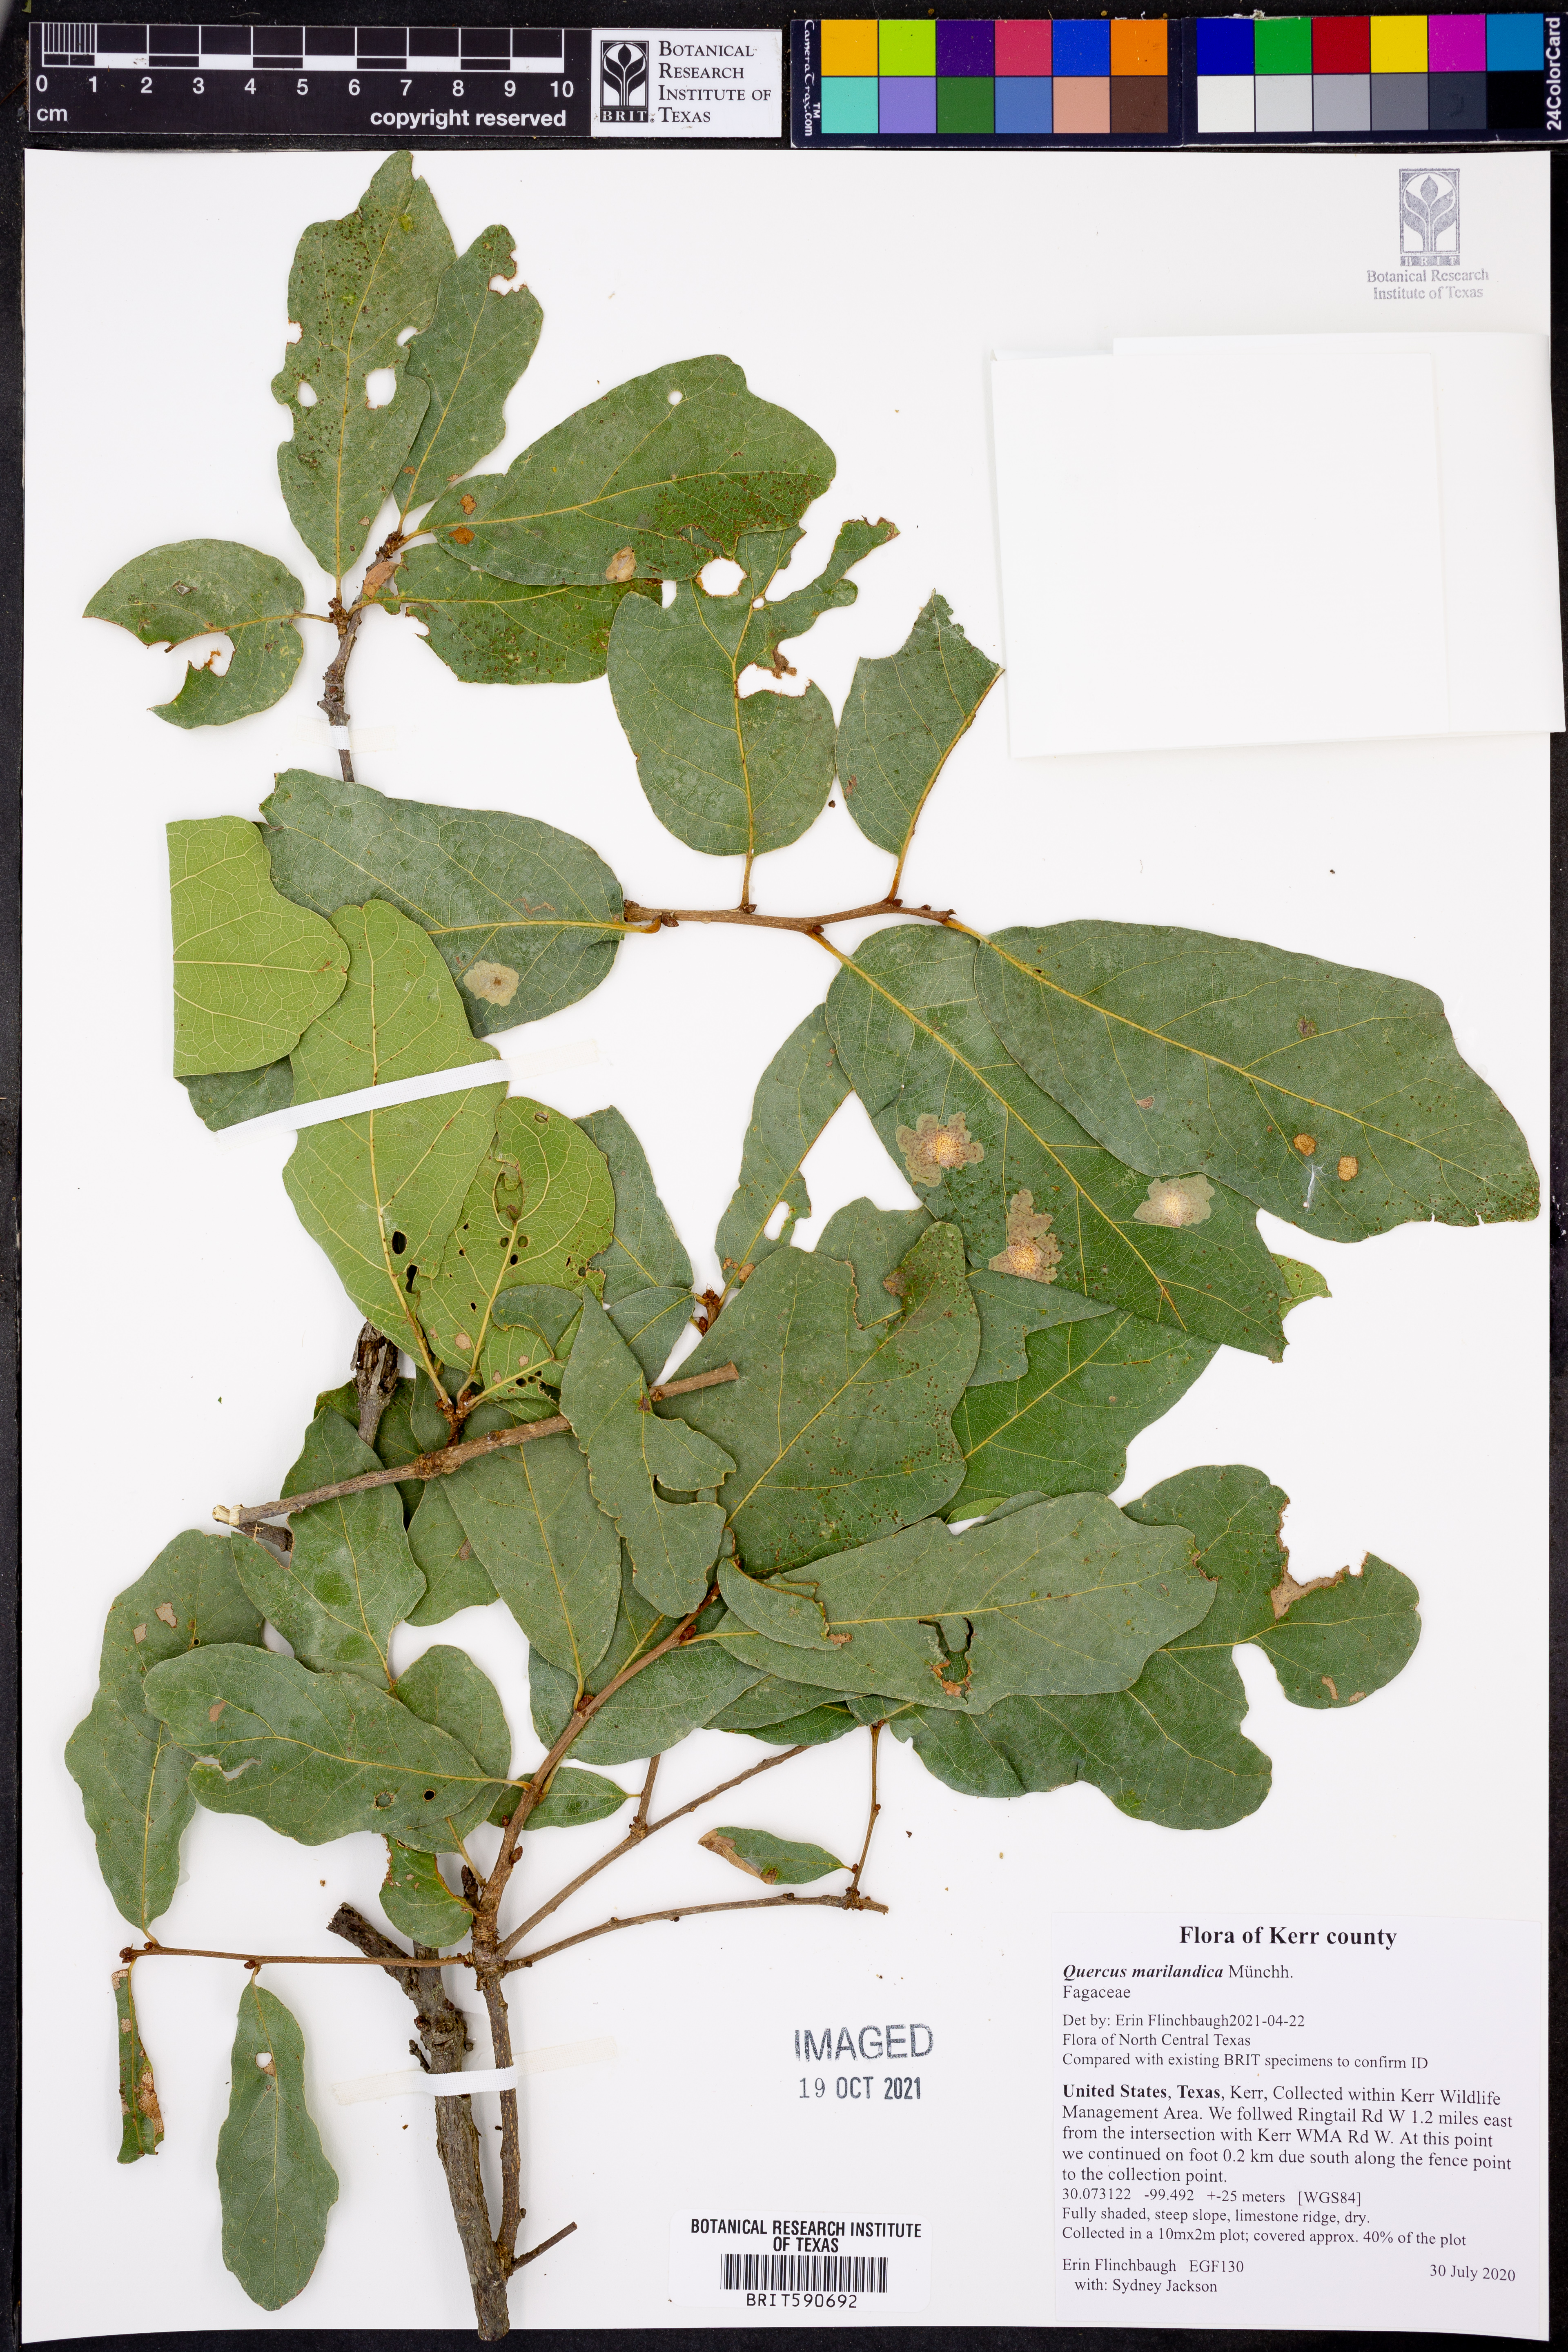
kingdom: Plantae
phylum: Tracheophyta
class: Magnoliopsida
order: Fagales
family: Fagaceae
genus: Quercus
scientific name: Quercus marilandica
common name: Blackjack oak
